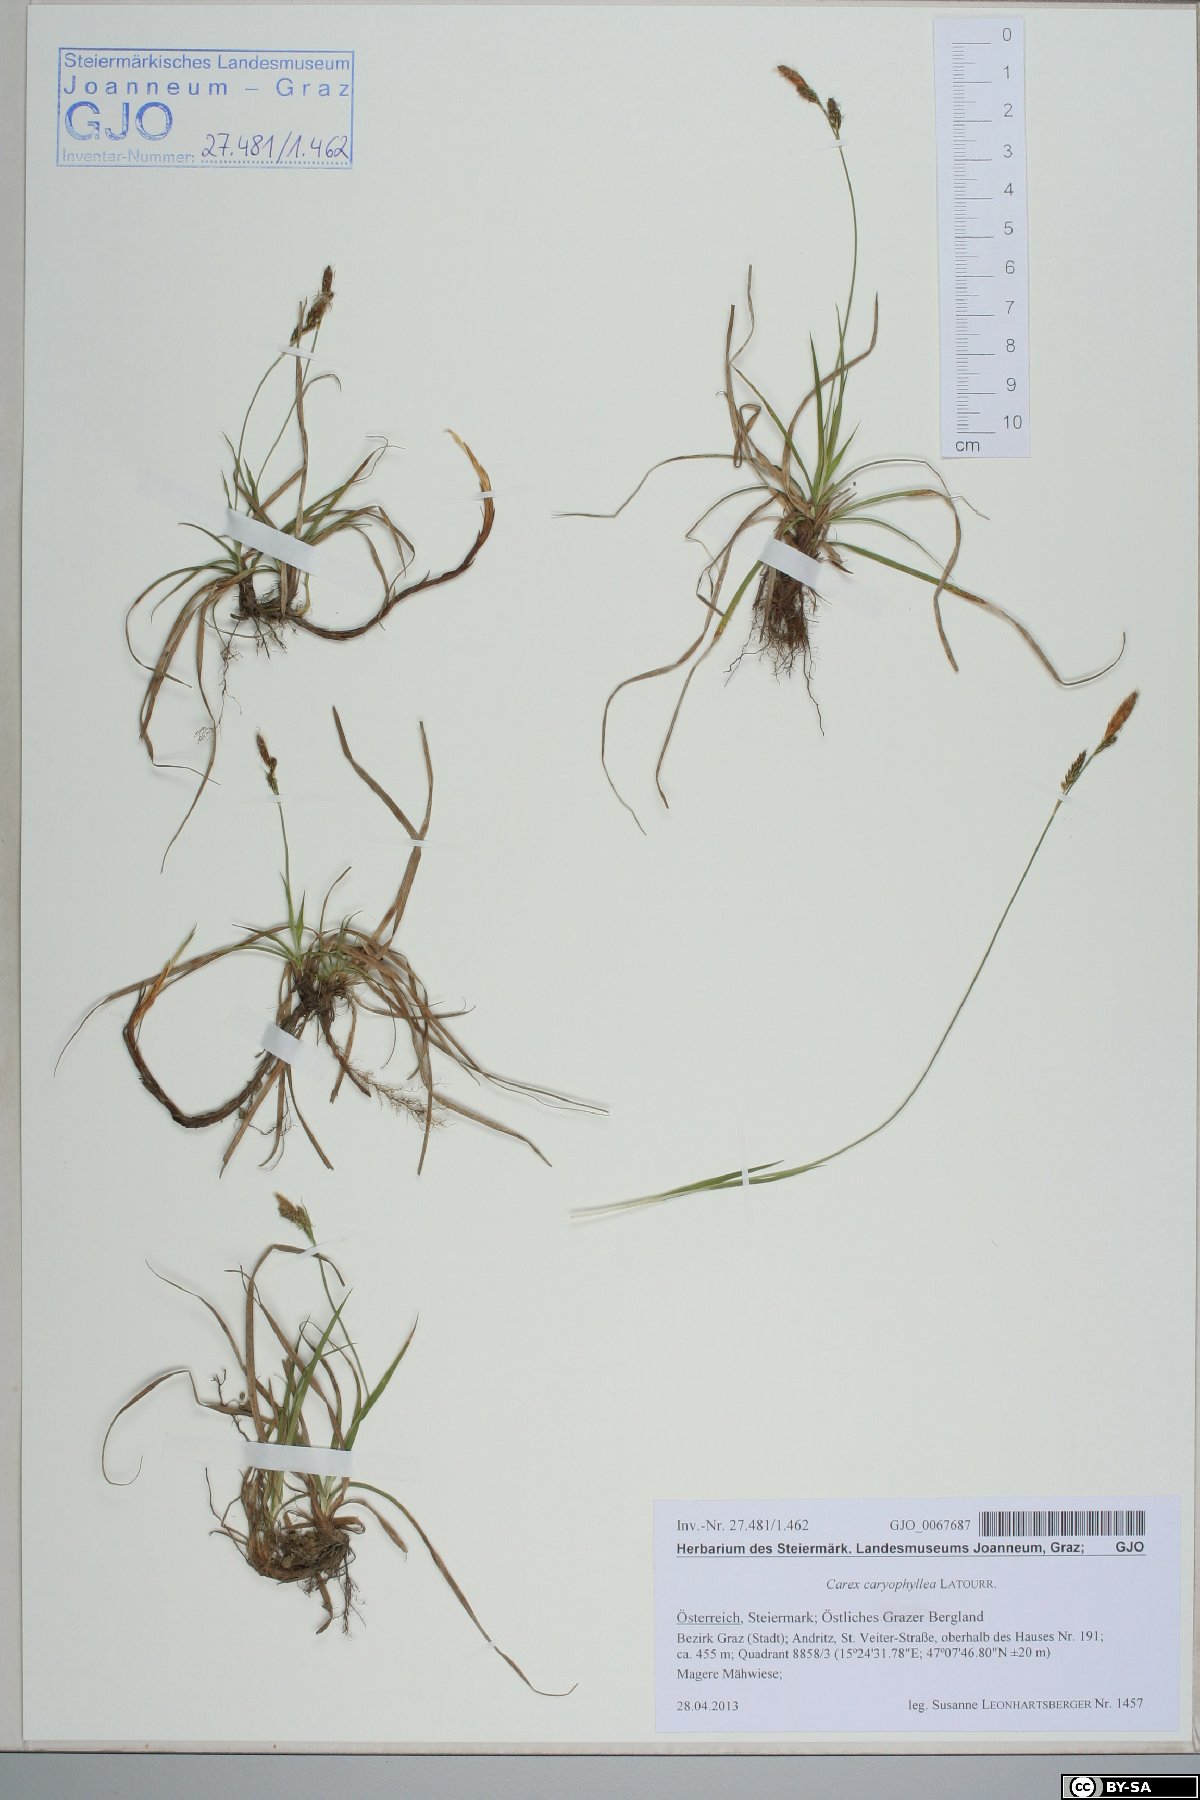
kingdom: Plantae
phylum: Tracheophyta
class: Liliopsida
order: Poales
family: Cyperaceae
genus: Carex
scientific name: Carex caryophyllea
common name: Spring sedge
